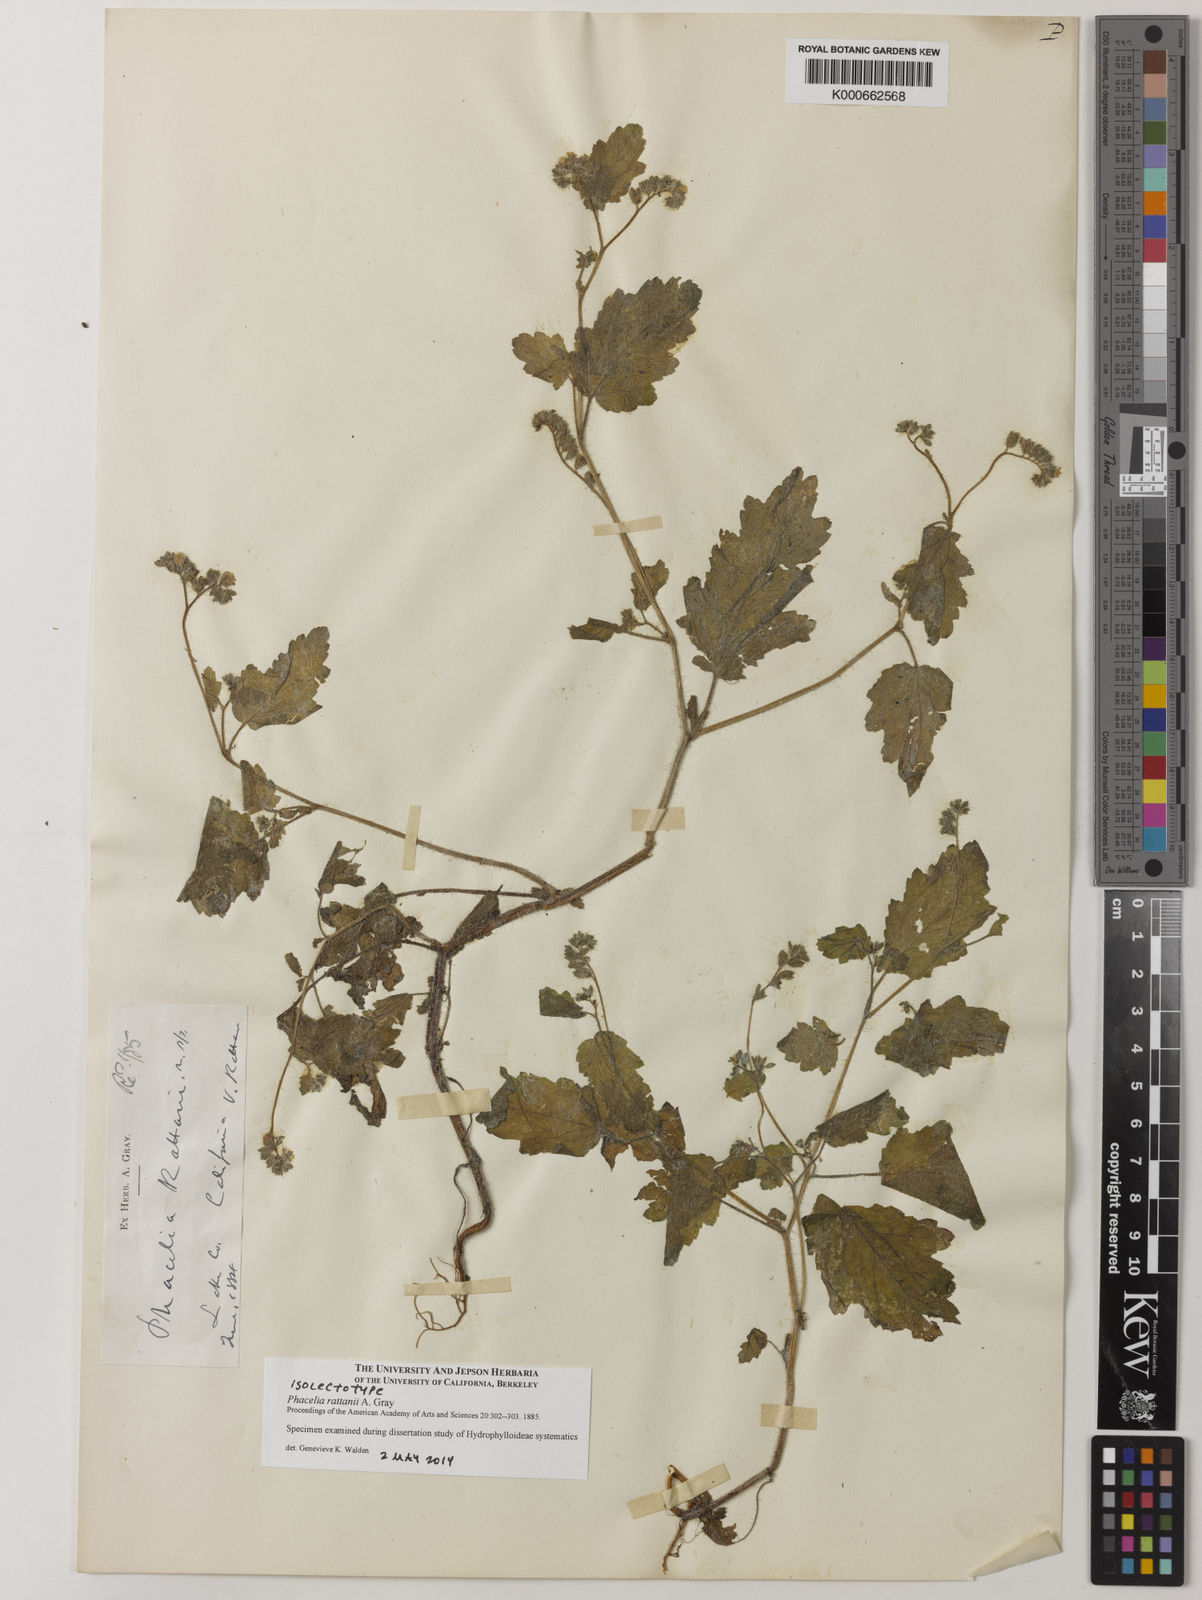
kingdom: Plantae
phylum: Tracheophyta
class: Magnoliopsida
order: Boraginales
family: Hydrophyllaceae
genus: Phacelia
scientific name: Phacelia rattanii
